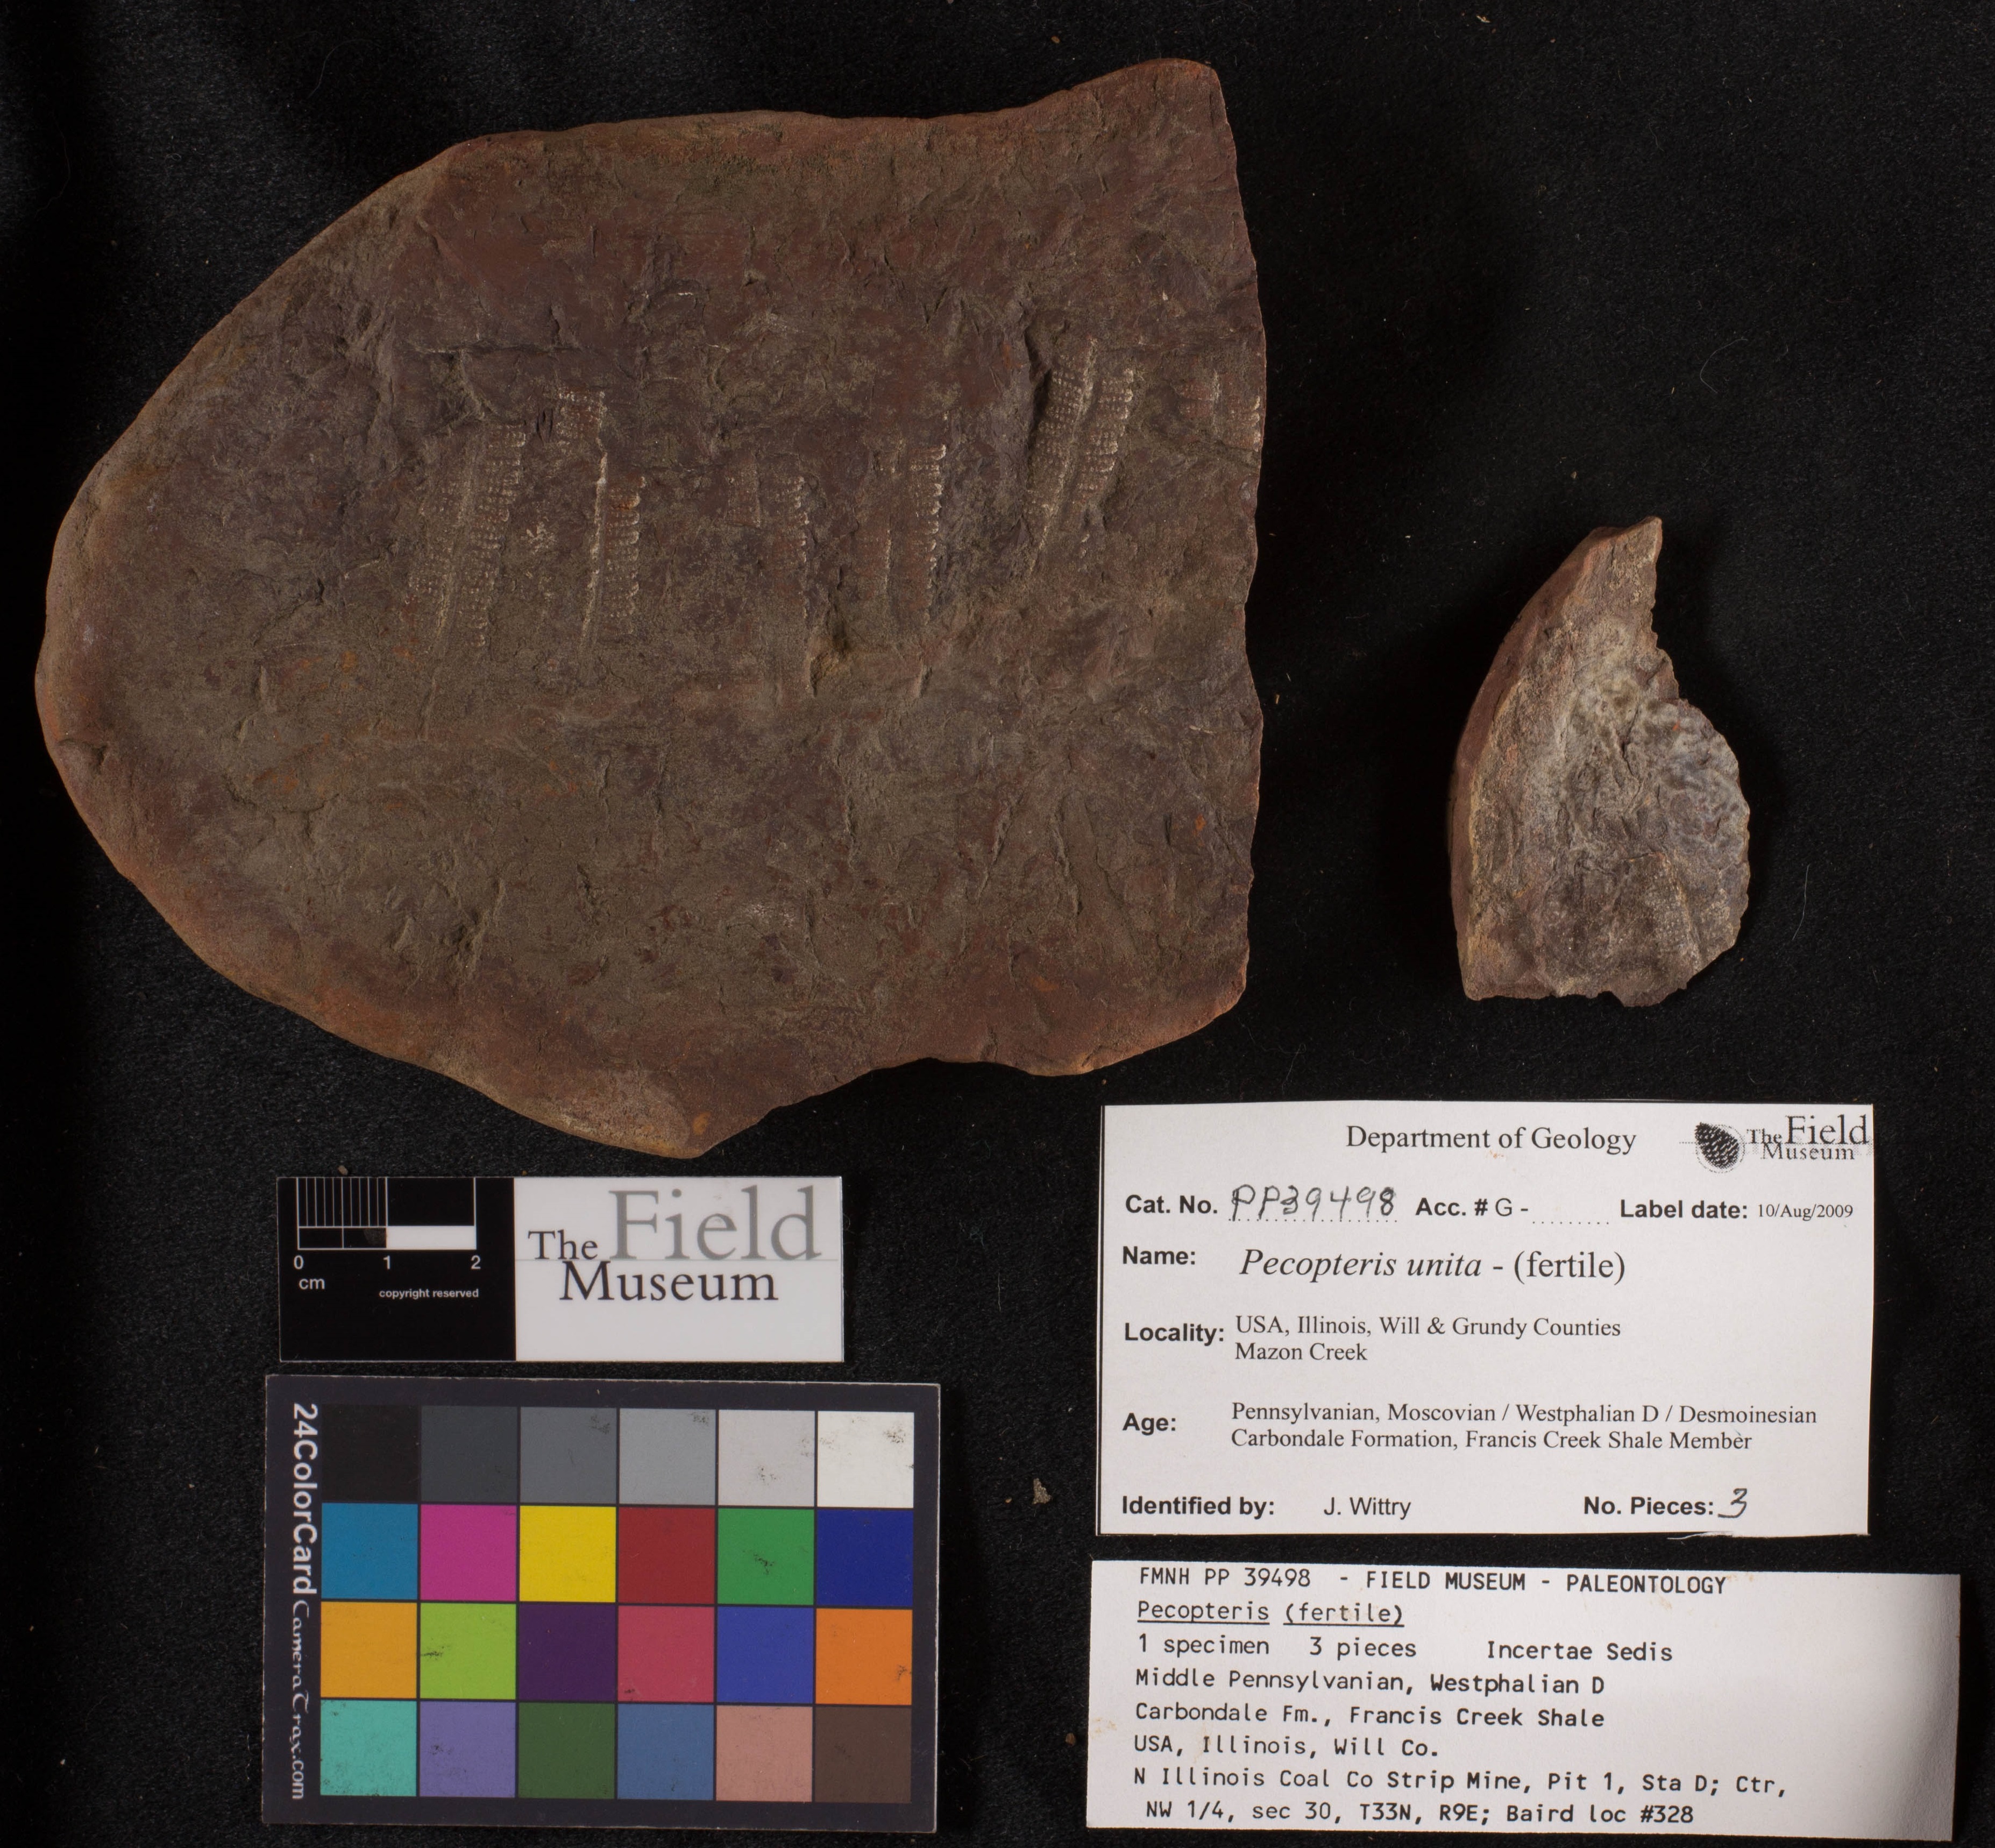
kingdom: Plantae
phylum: Tracheophyta
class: Polypodiopsida
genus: Diplazites
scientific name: Diplazites
